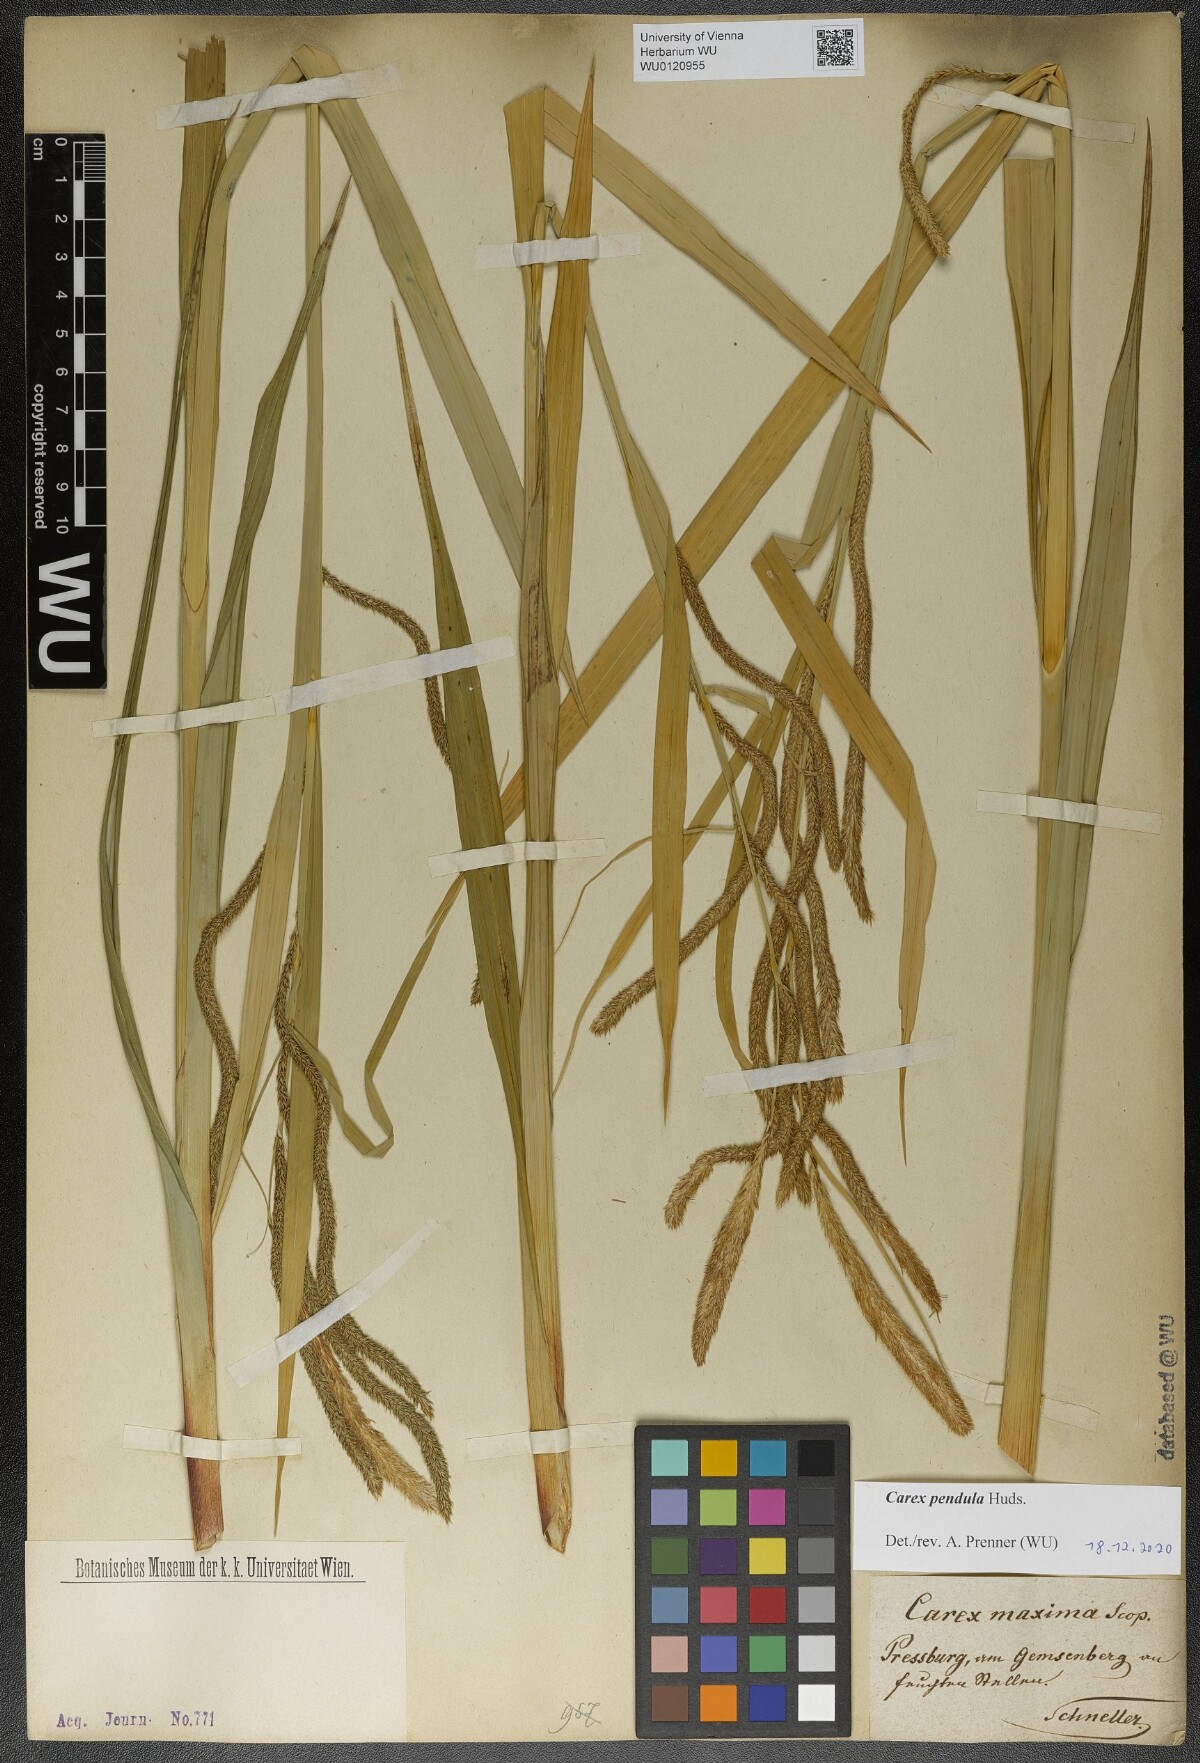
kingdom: Plantae
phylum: Tracheophyta
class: Liliopsida
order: Poales
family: Cyperaceae
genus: Carex
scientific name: Carex pendula
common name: Pendulous sedge
